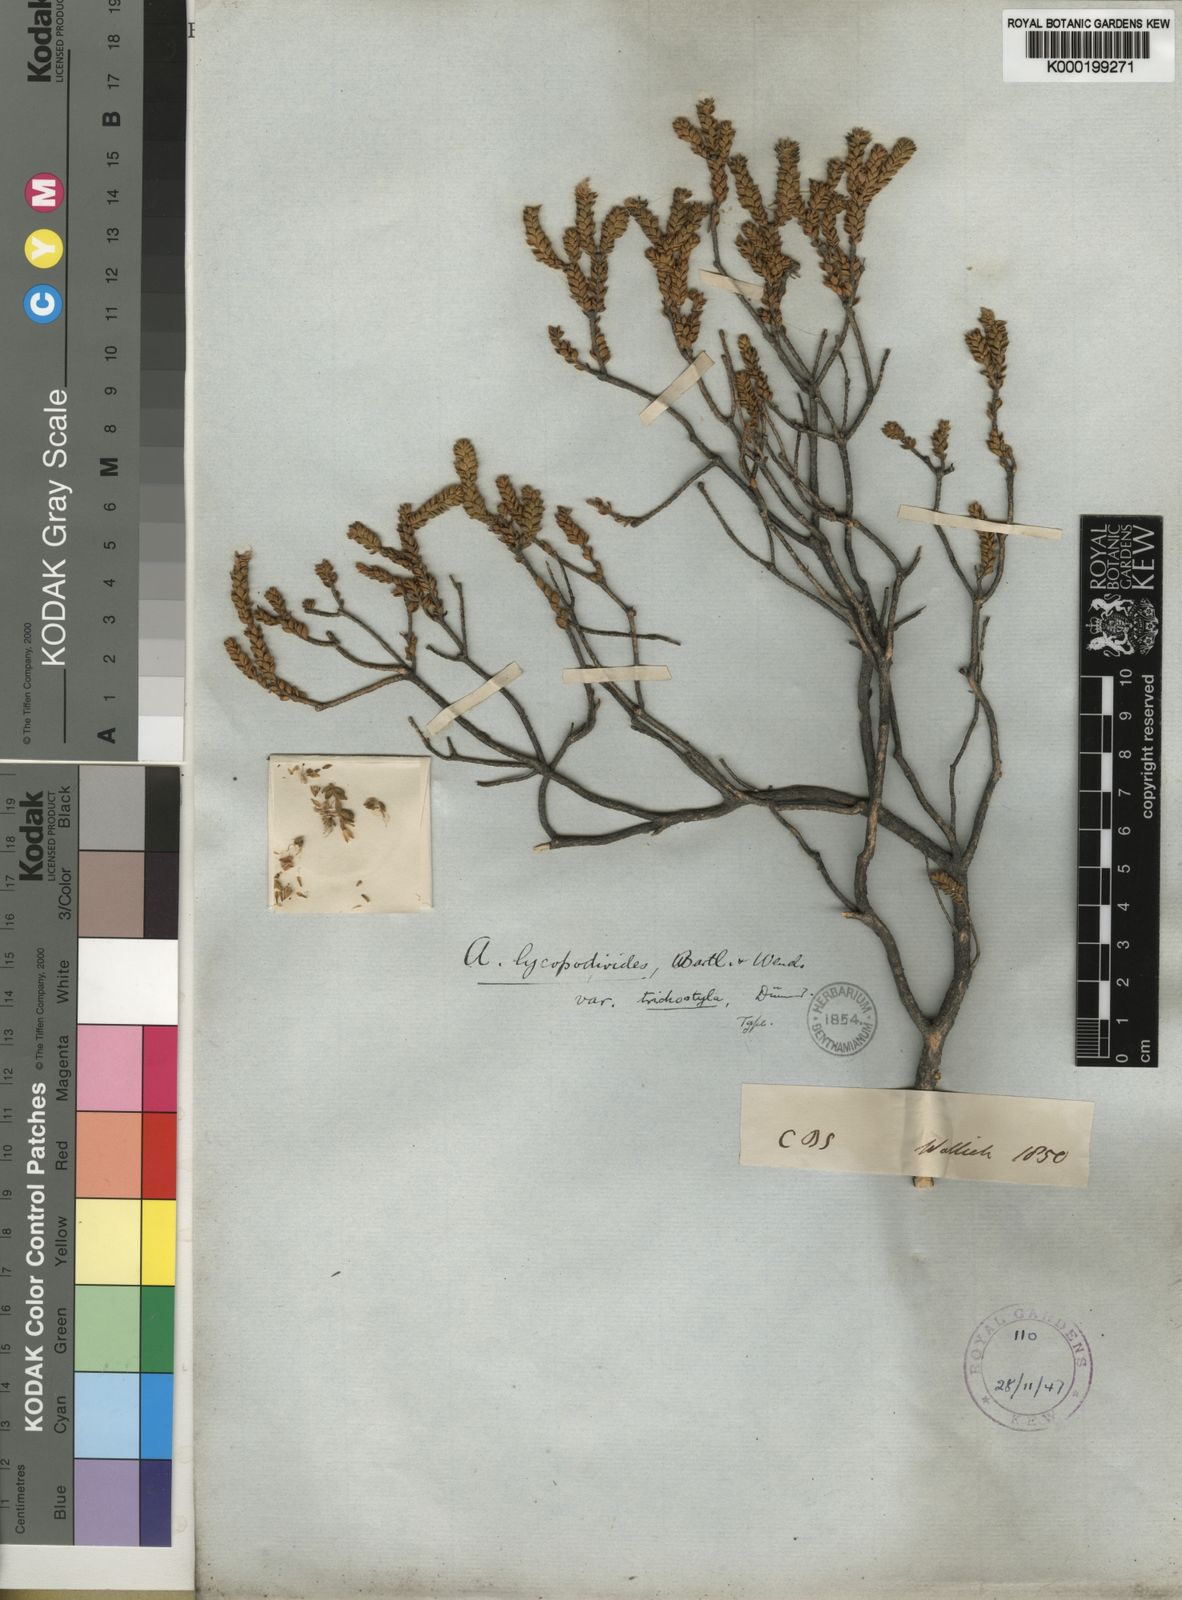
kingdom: Plantae
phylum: Tracheophyta
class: Magnoliopsida
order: Sapindales
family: Rutaceae
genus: Agathosma
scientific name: Agathosma stilbeoides
